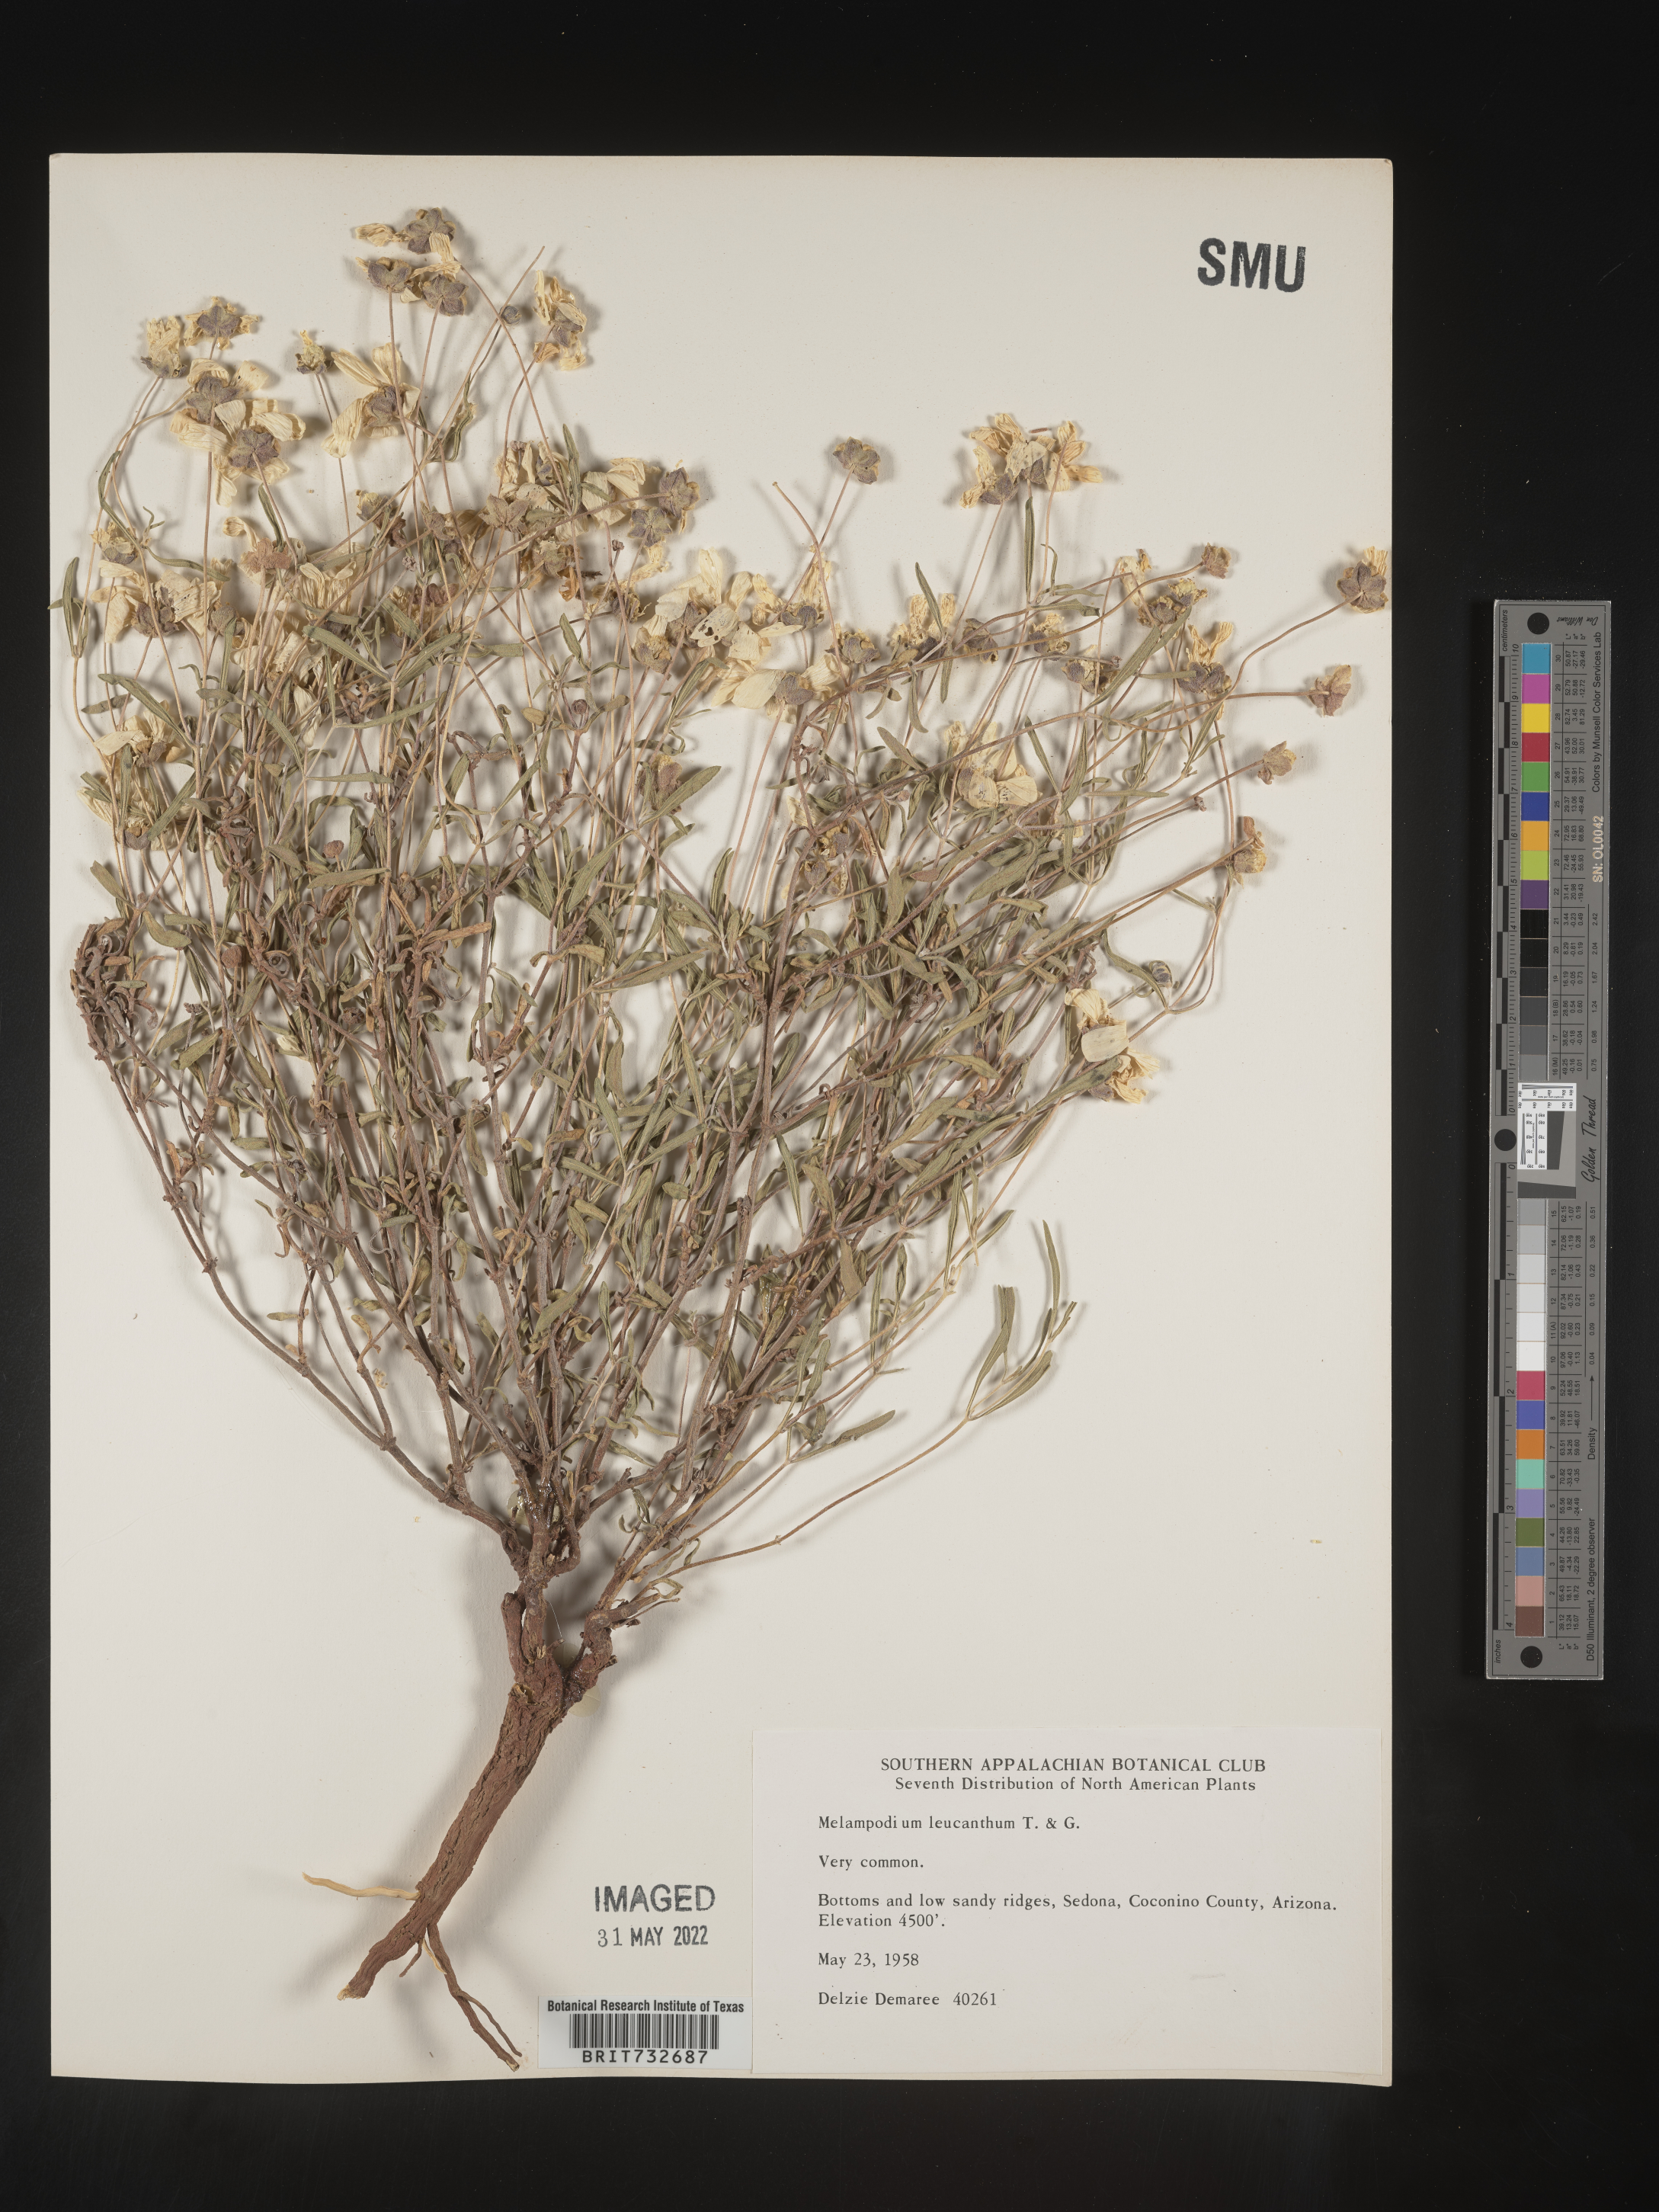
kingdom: Plantae
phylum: Tracheophyta
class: Magnoliopsida
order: Asterales
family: Asteraceae
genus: Melampodium
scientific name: Melampodium leucanthum
